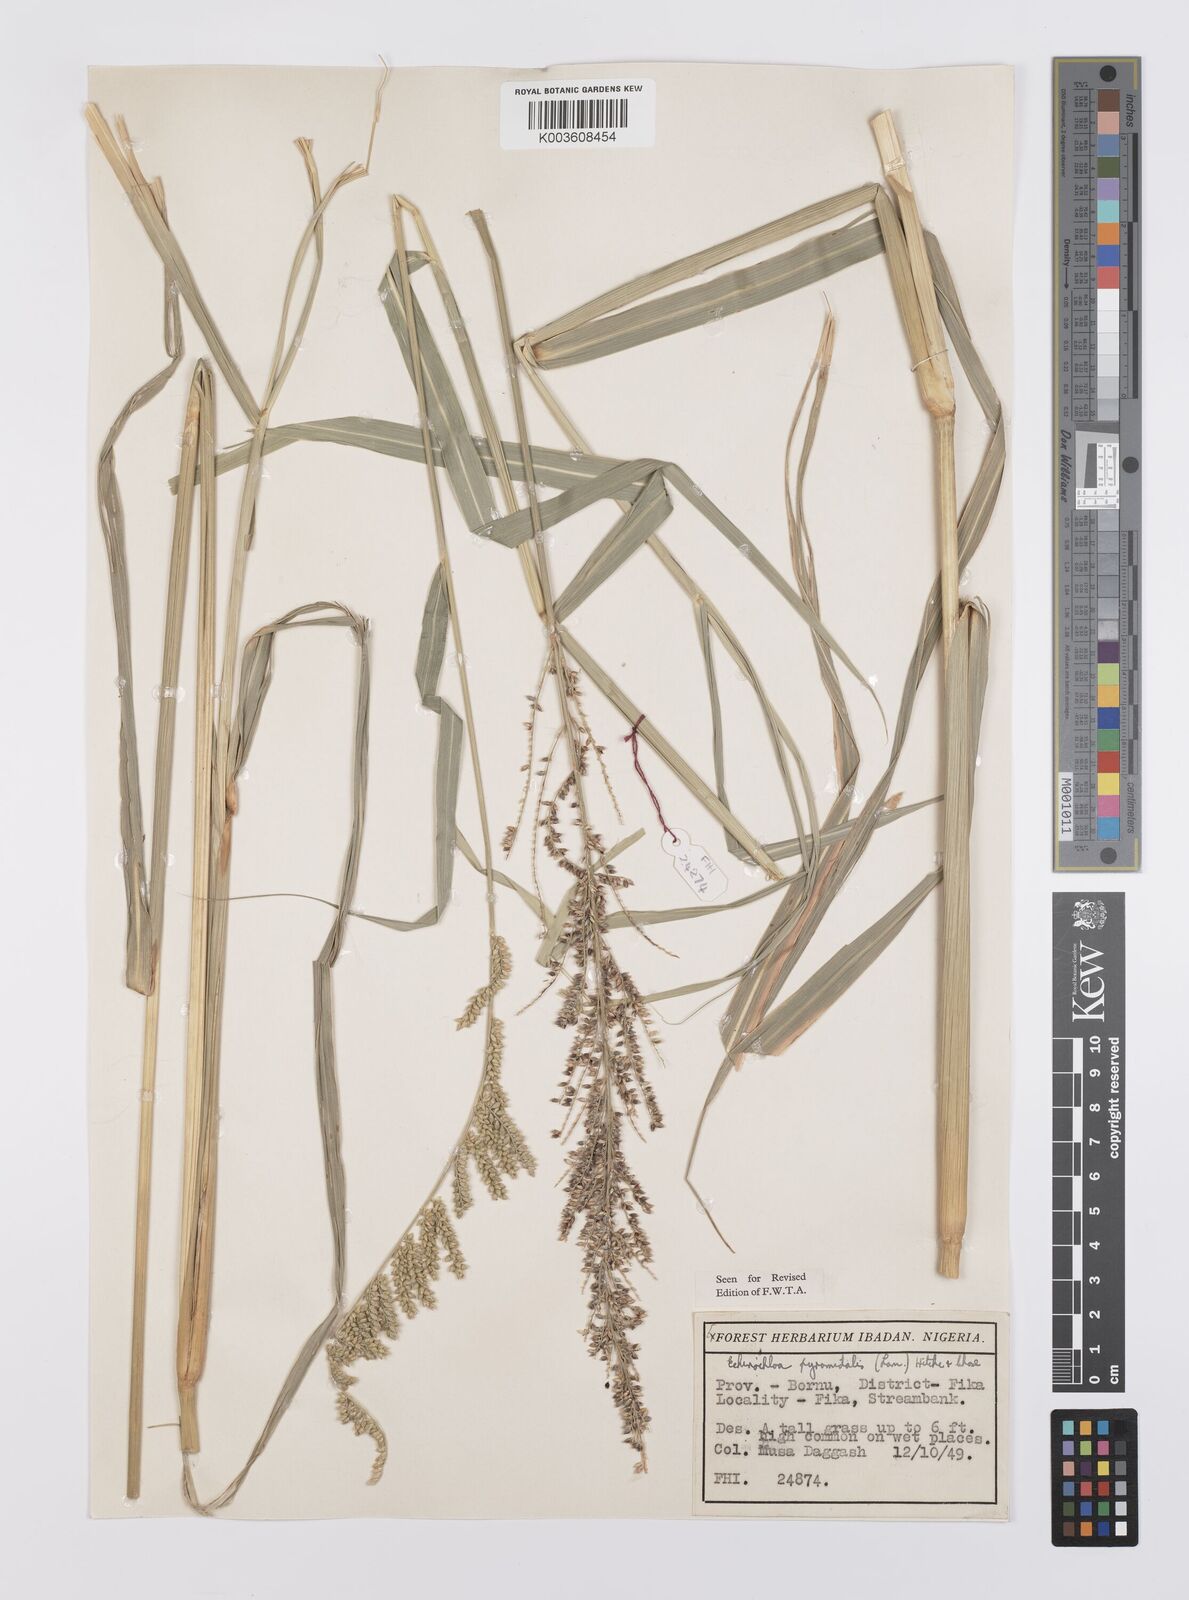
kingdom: Plantae
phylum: Tracheophyta
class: Liliopsida
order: Poales
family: Poaceae
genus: Echinochloa
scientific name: Echinochloa pyramidalis
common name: Antelope grass
